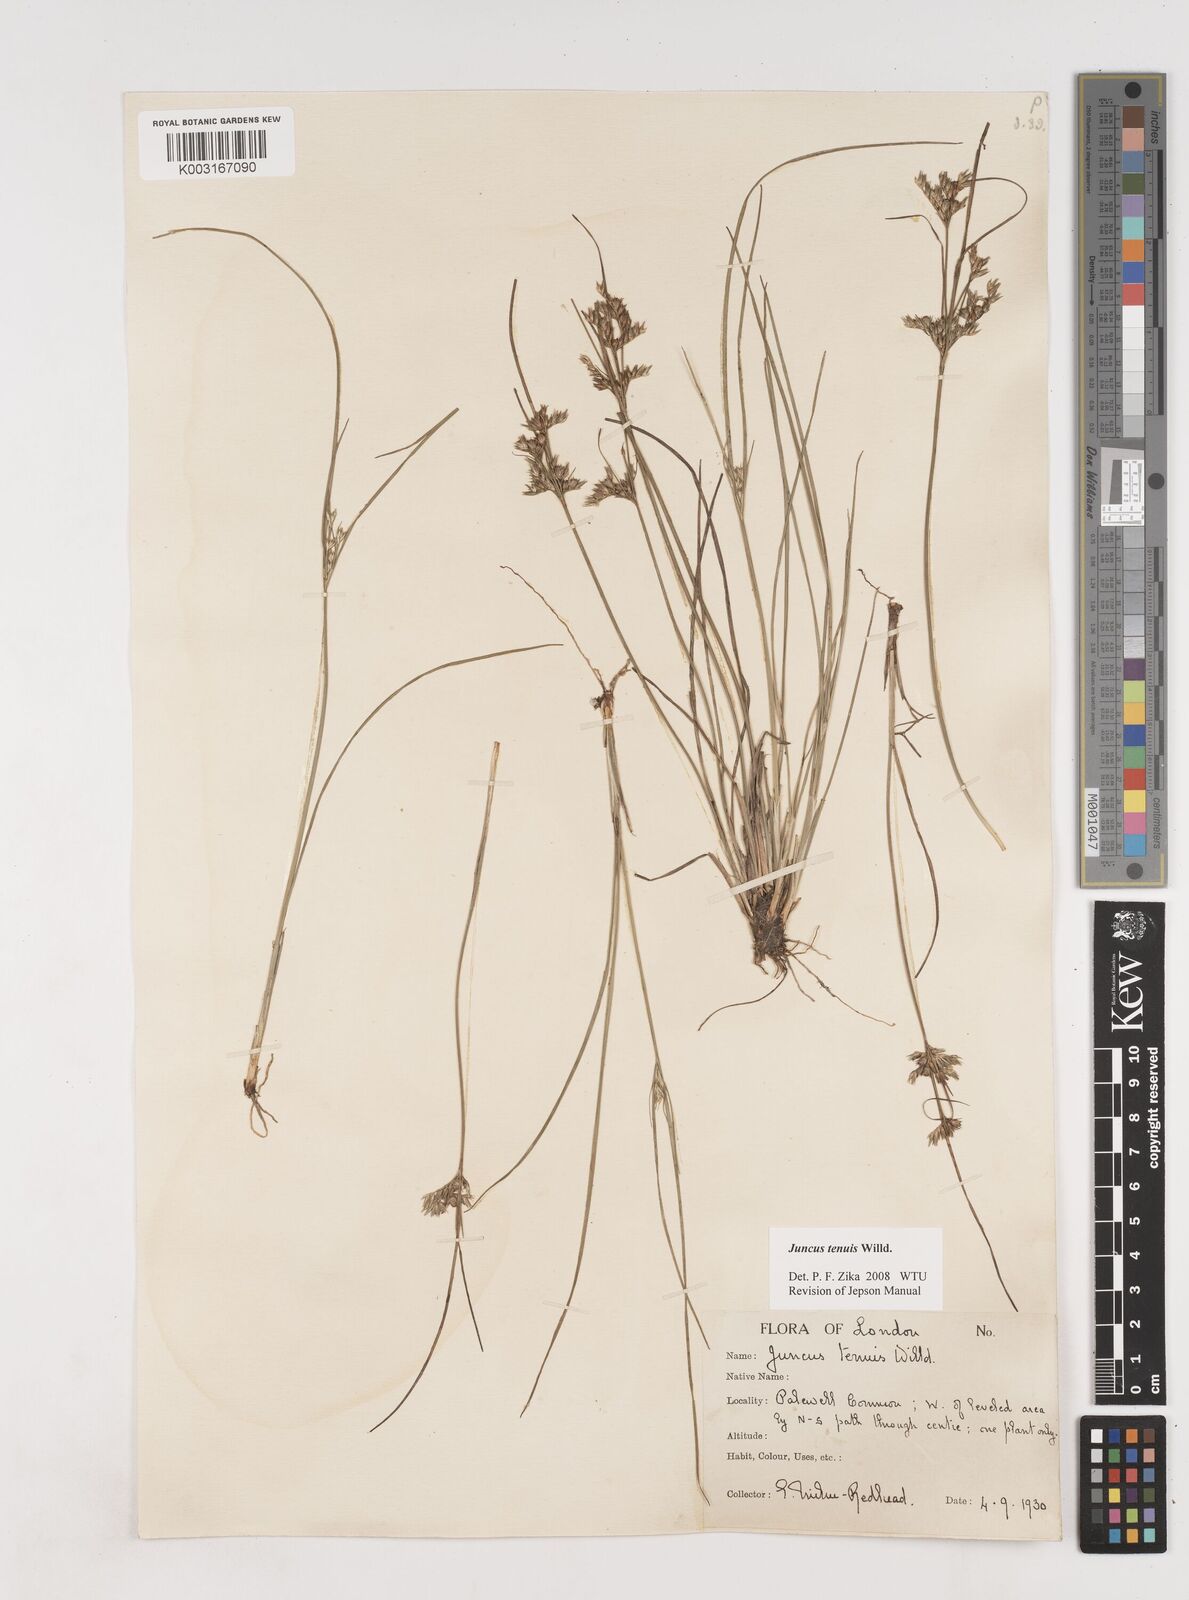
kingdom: Plantae
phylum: Tracheophyta
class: Liliopsida
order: Poales
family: Juncaceae
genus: Juncus
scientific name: Juncus tenuis
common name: Slender rush
